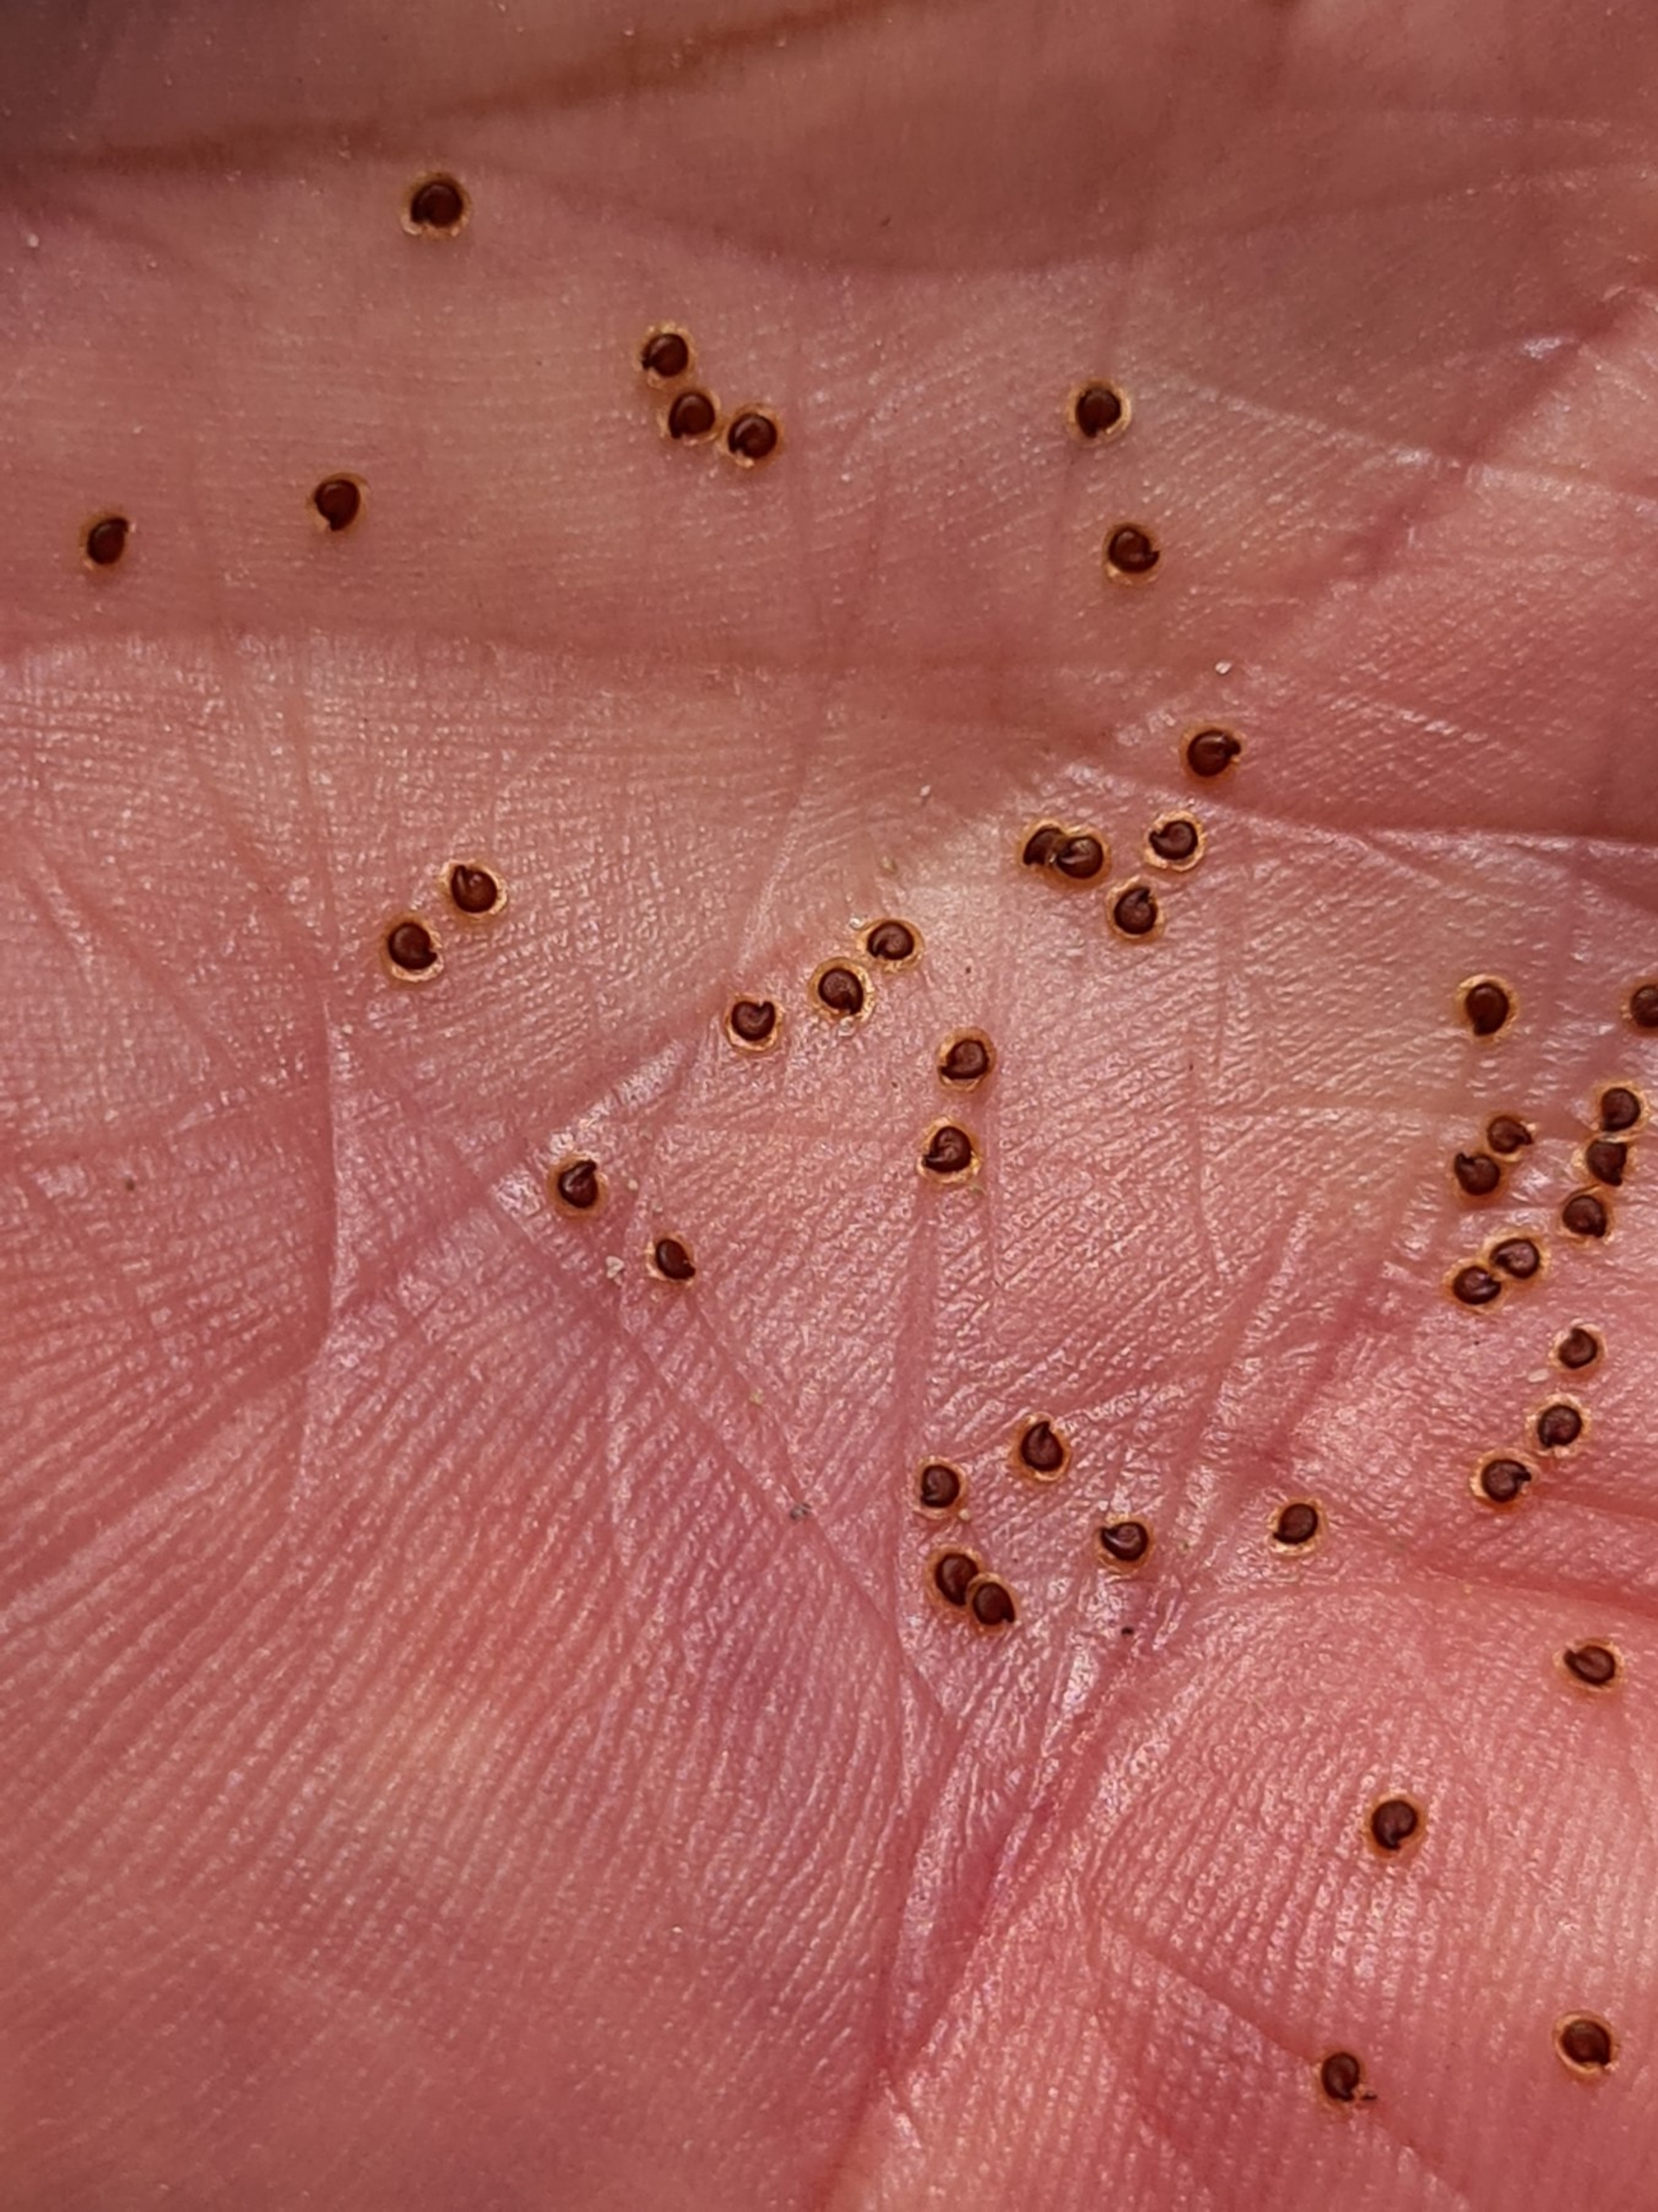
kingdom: Plantae
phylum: Tracheophyta
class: Magnoliopsida
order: Caryophyllales
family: Caryophyllaceae
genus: Spergularia
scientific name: Spergularia marina
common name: Kødet hindeknæ
